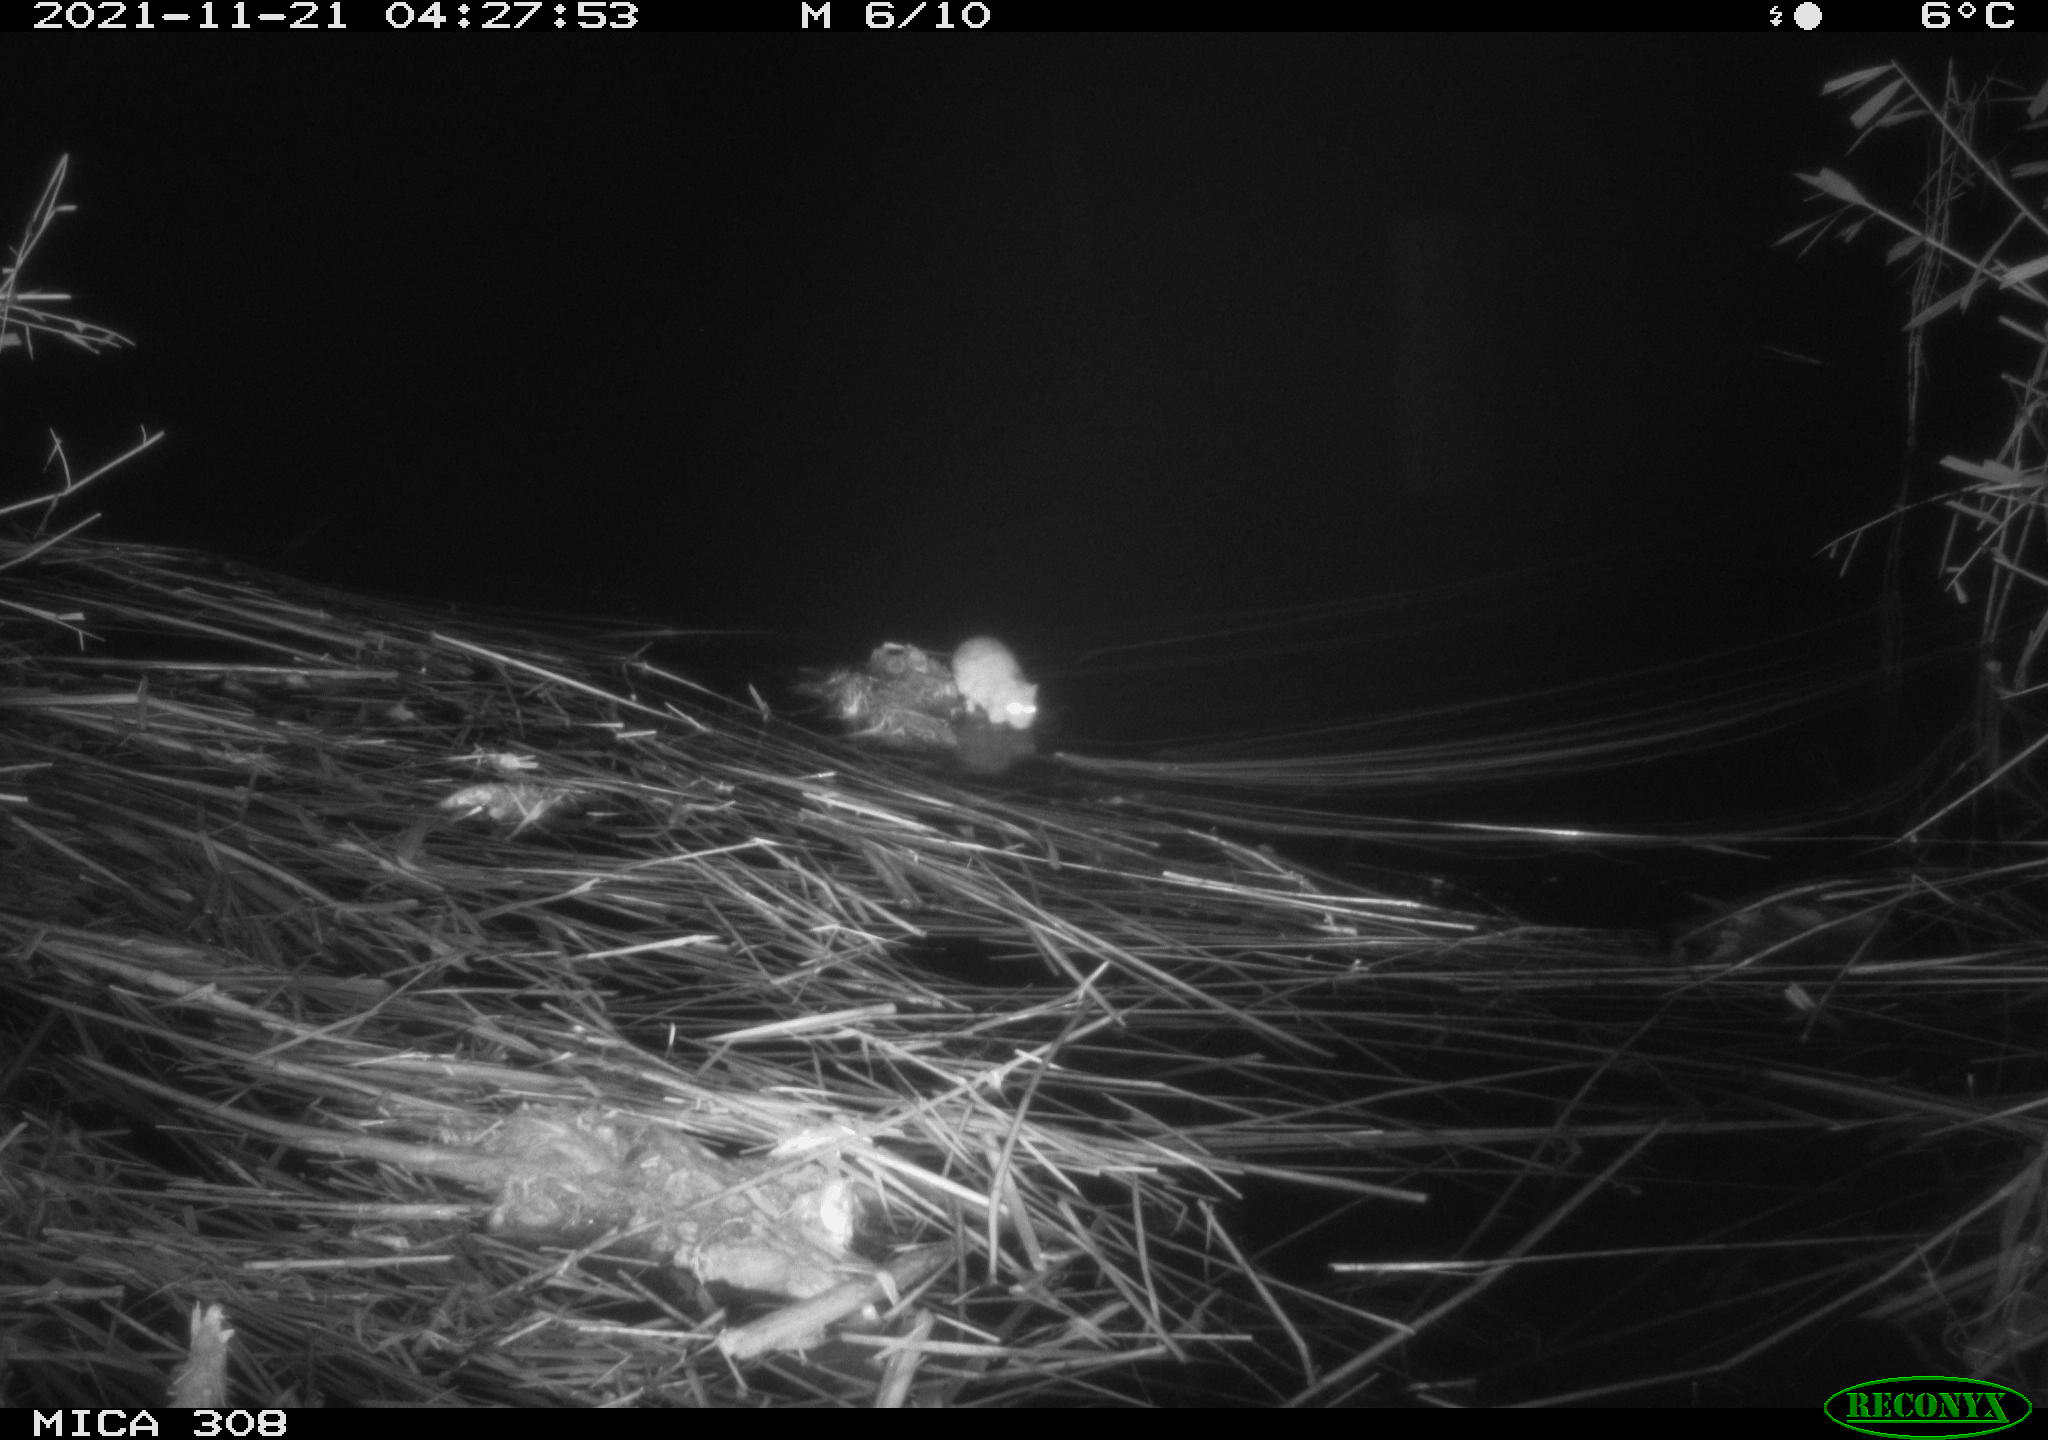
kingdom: Animalia
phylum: Chordata
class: Mammalia
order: Rodentia
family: Muridae
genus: Rattus
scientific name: Rattus norvegicus
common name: Brown rat
